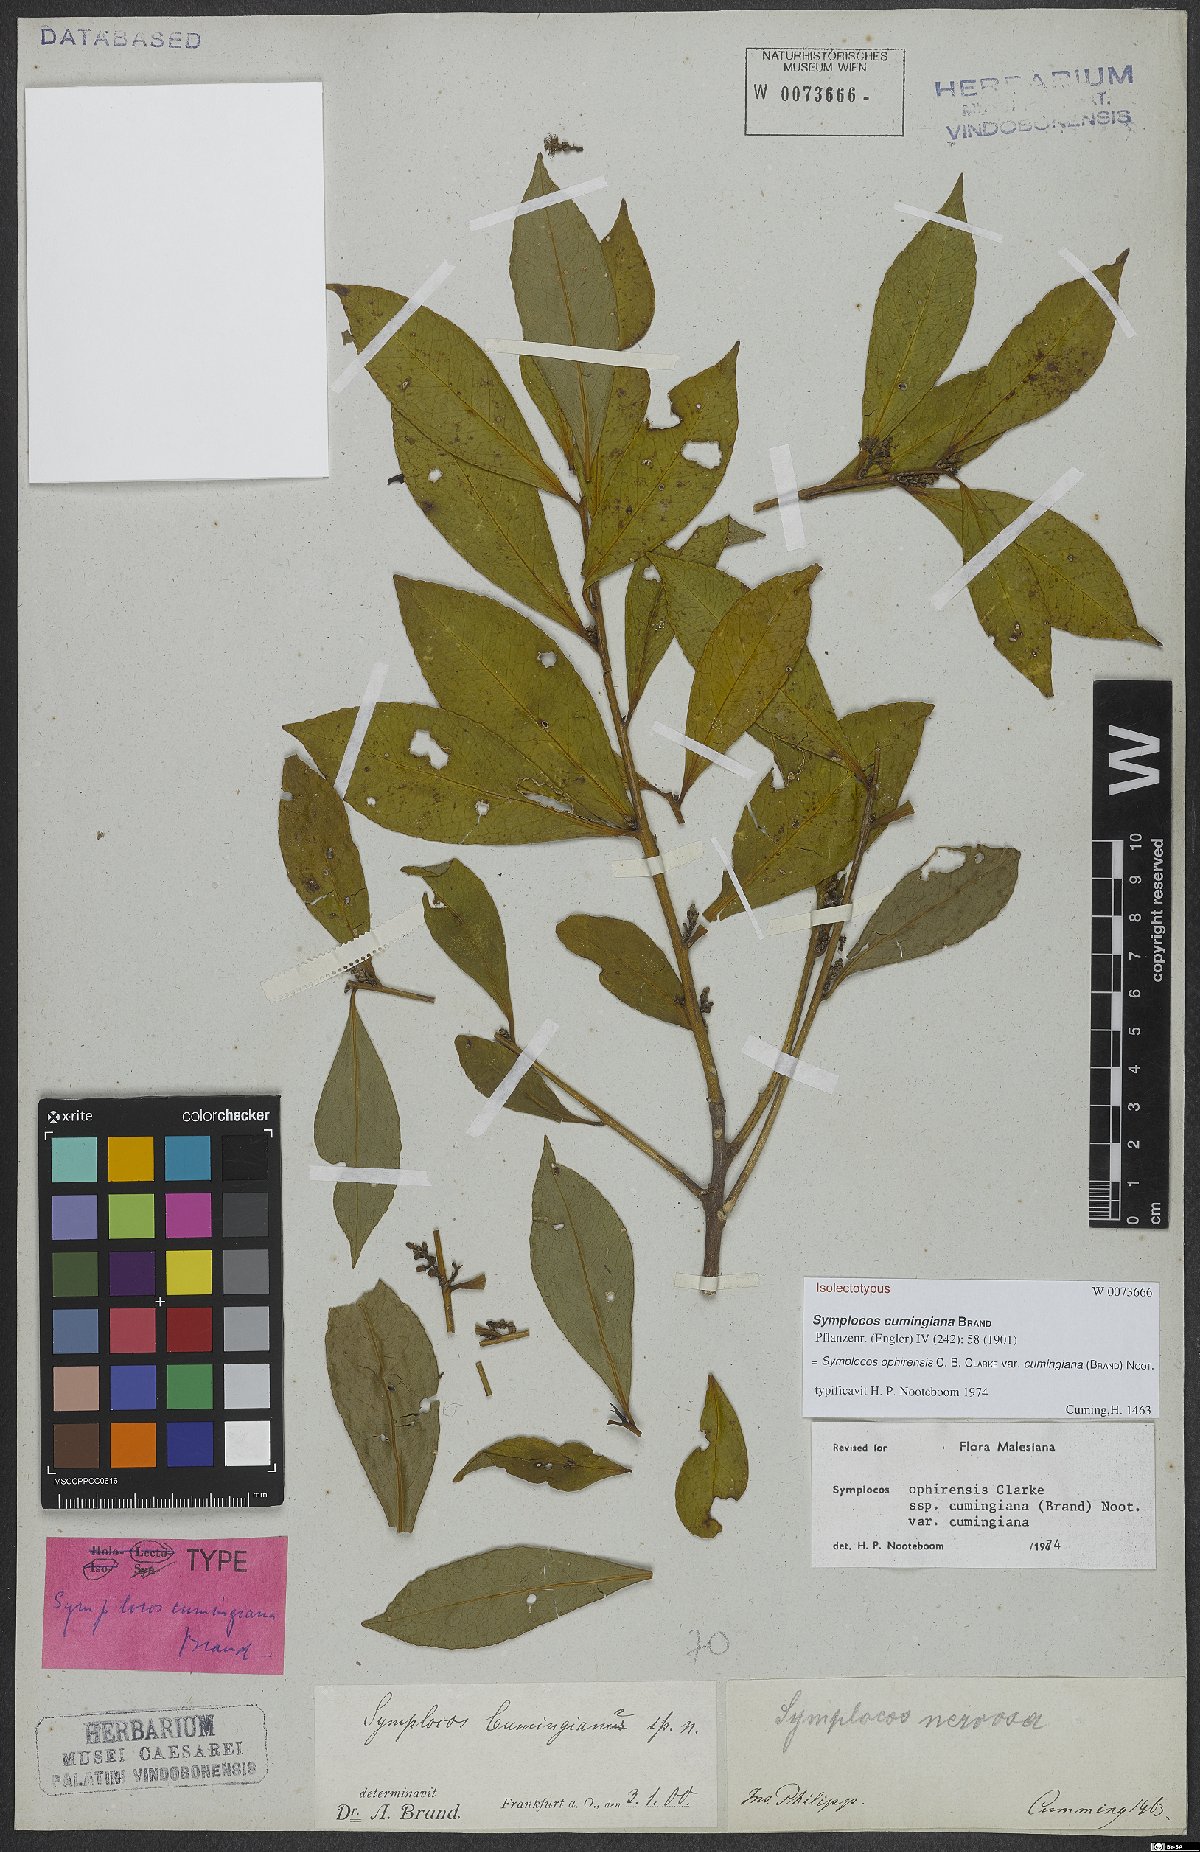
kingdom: Plantae
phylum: Tracheophyta
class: Magnoliopsida
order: Ericales
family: Symplocaceae
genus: Symplocos
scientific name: Symplocos ophirensis
